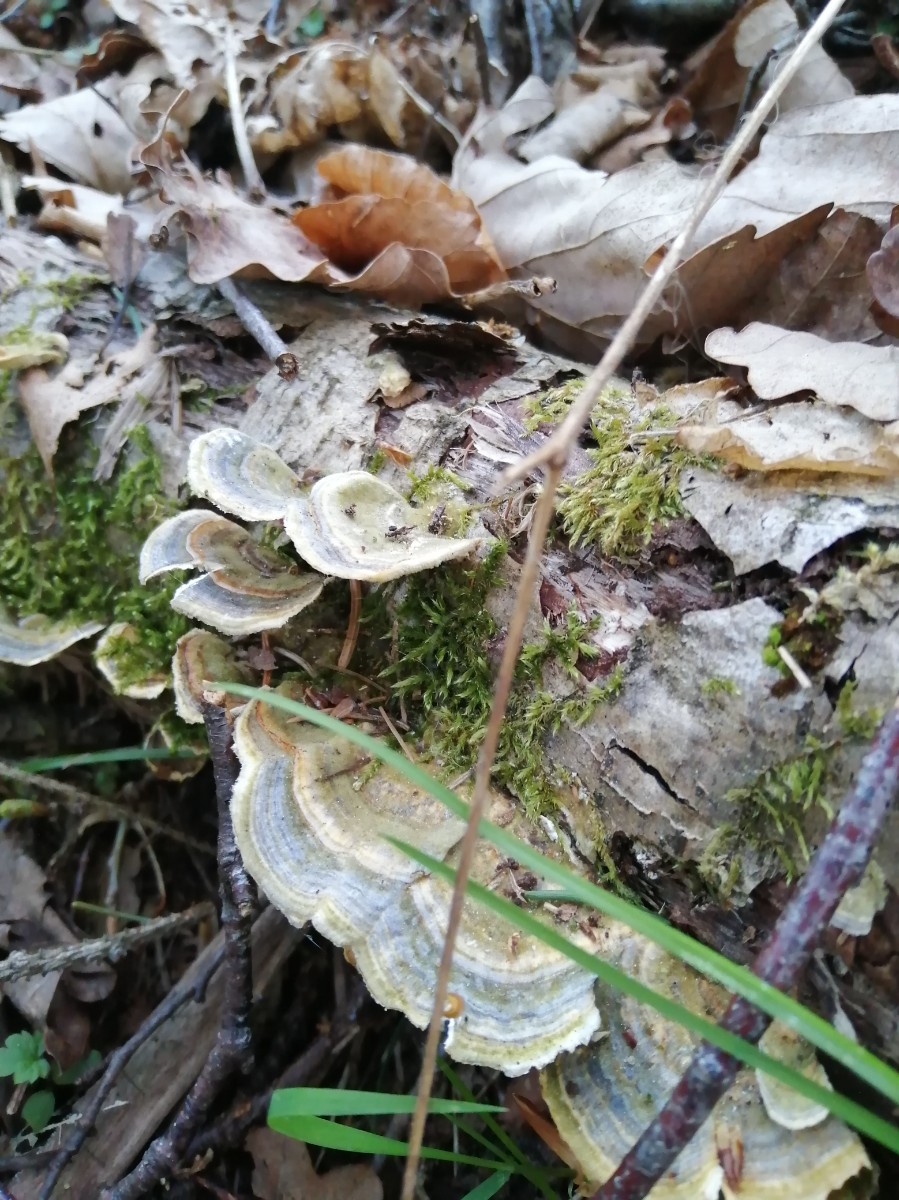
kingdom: Fungi
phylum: Basidiomycota
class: Agaricomycetes
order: Polyporales
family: Polyporaceae
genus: Trametes
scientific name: Trametes versicolor
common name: broget læderporesvamp
